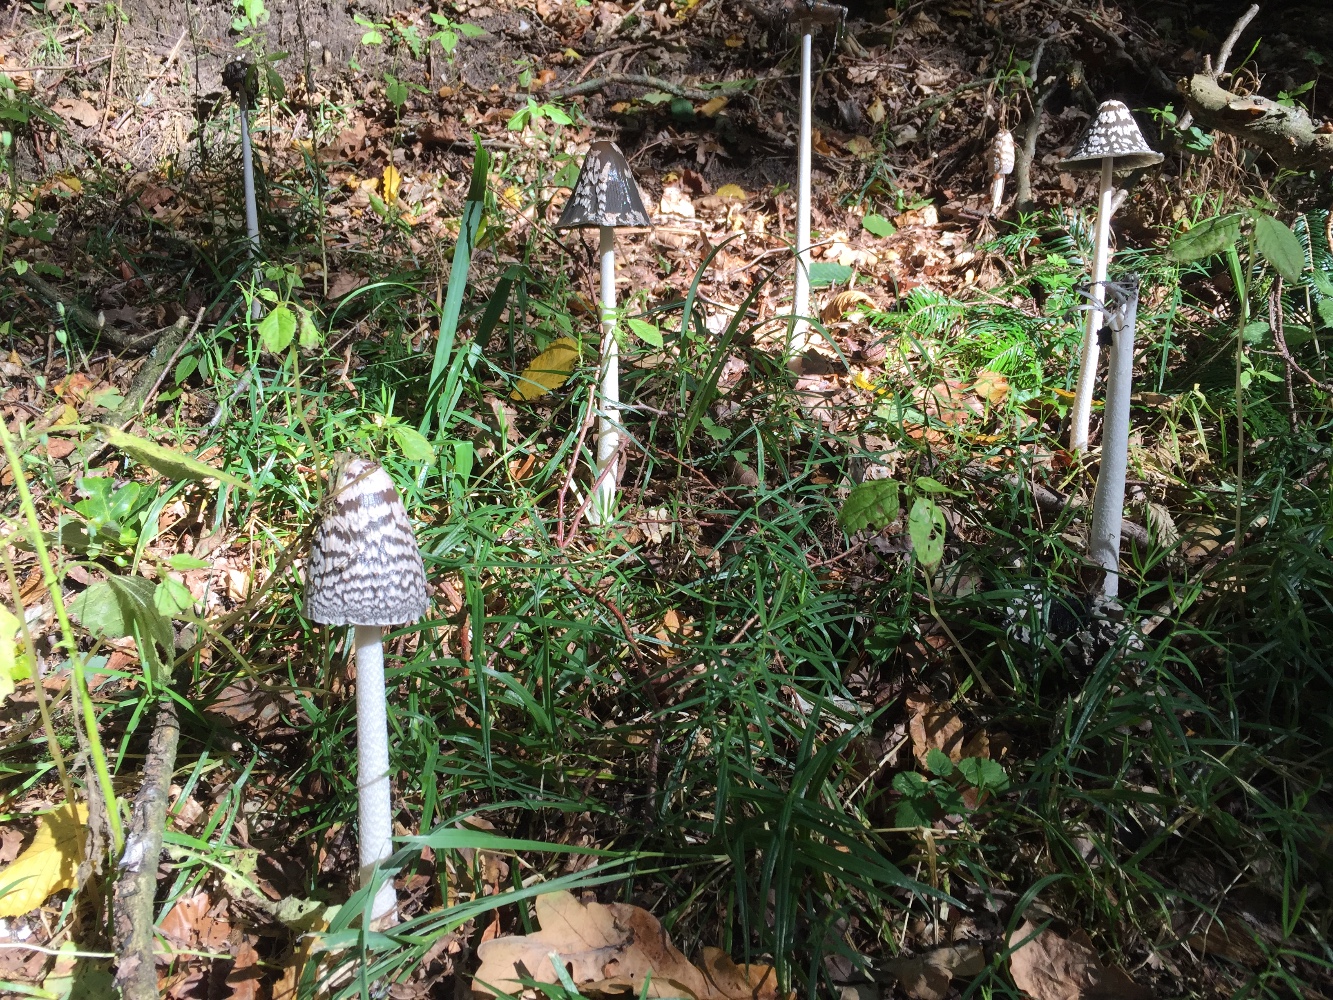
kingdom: Fungi
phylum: Basidiomycota
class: Agaricomycetes
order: Agaricales
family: Psathyrellaceae
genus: Coprinopsis
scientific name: Coprinopsis picacea
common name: skade-blækhat
